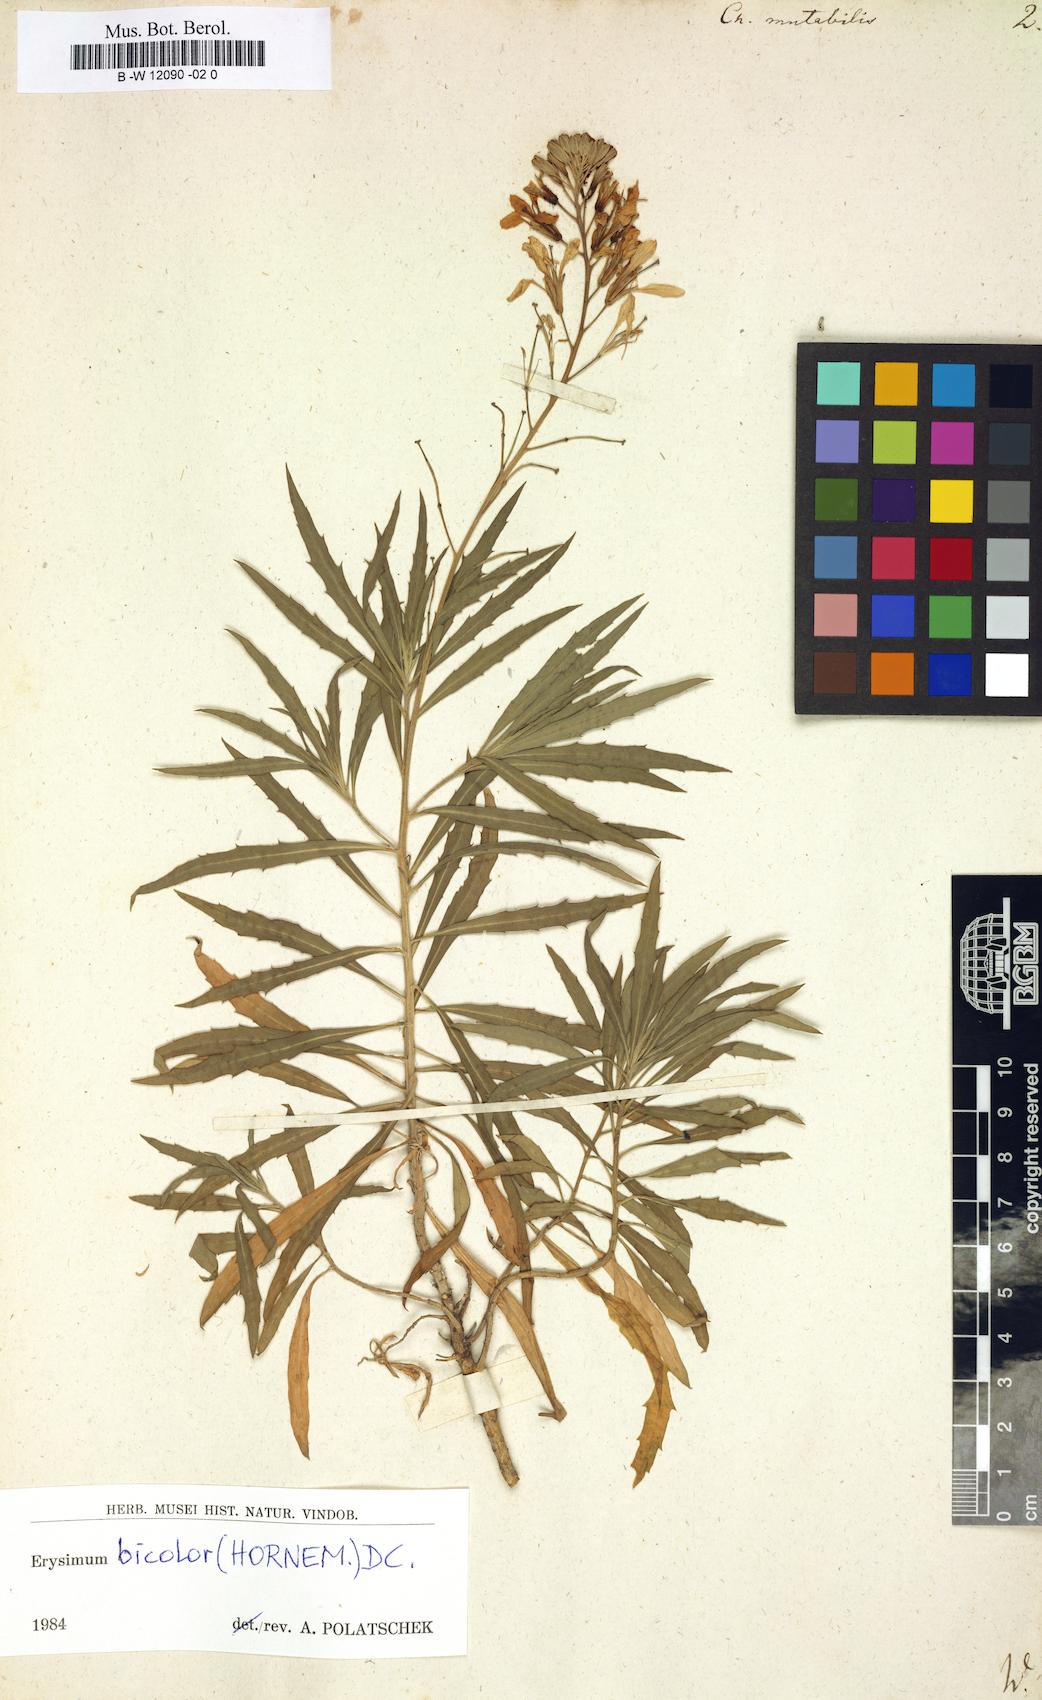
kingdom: Plantae
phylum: Tracheophyta
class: Magnoliopsida
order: Brassicales
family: Brassicaceae
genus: Erysimum
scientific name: Erysimum bicolor
